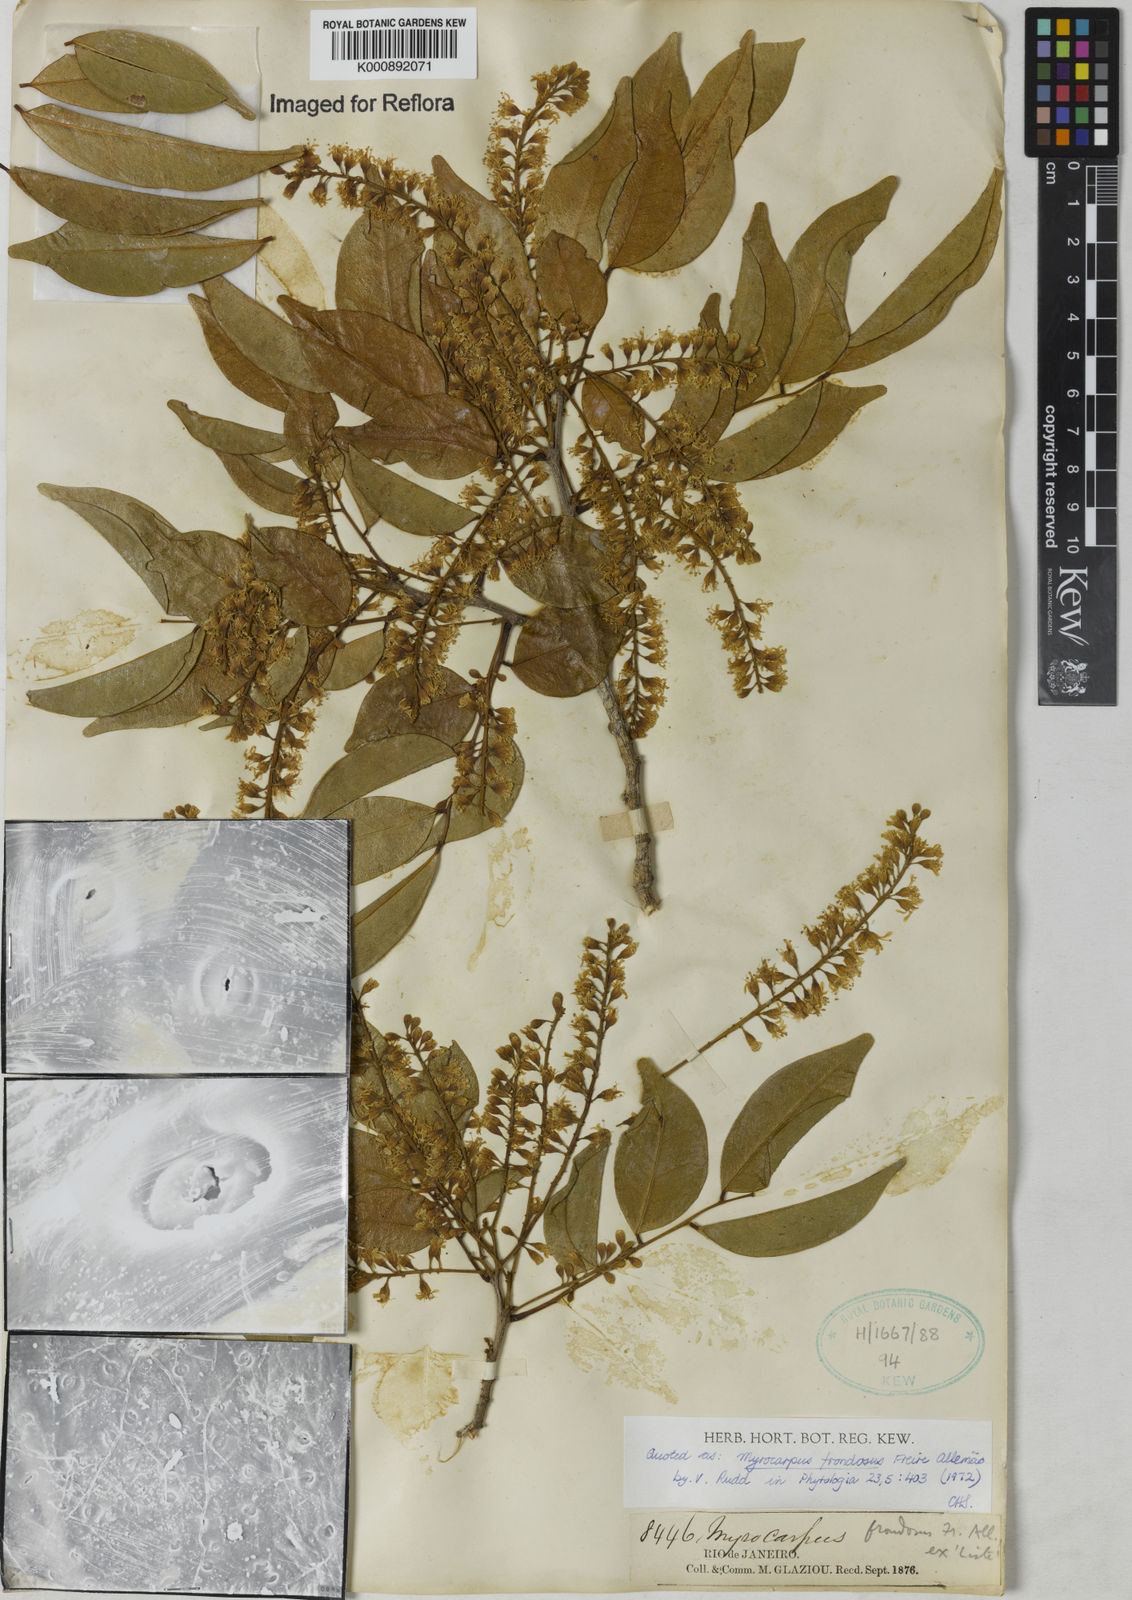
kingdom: Plantae
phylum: Tracheophyta
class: Magnoliopsida
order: Fabales
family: Fabaceae
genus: Myrocarpus
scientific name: Myrocarpus
